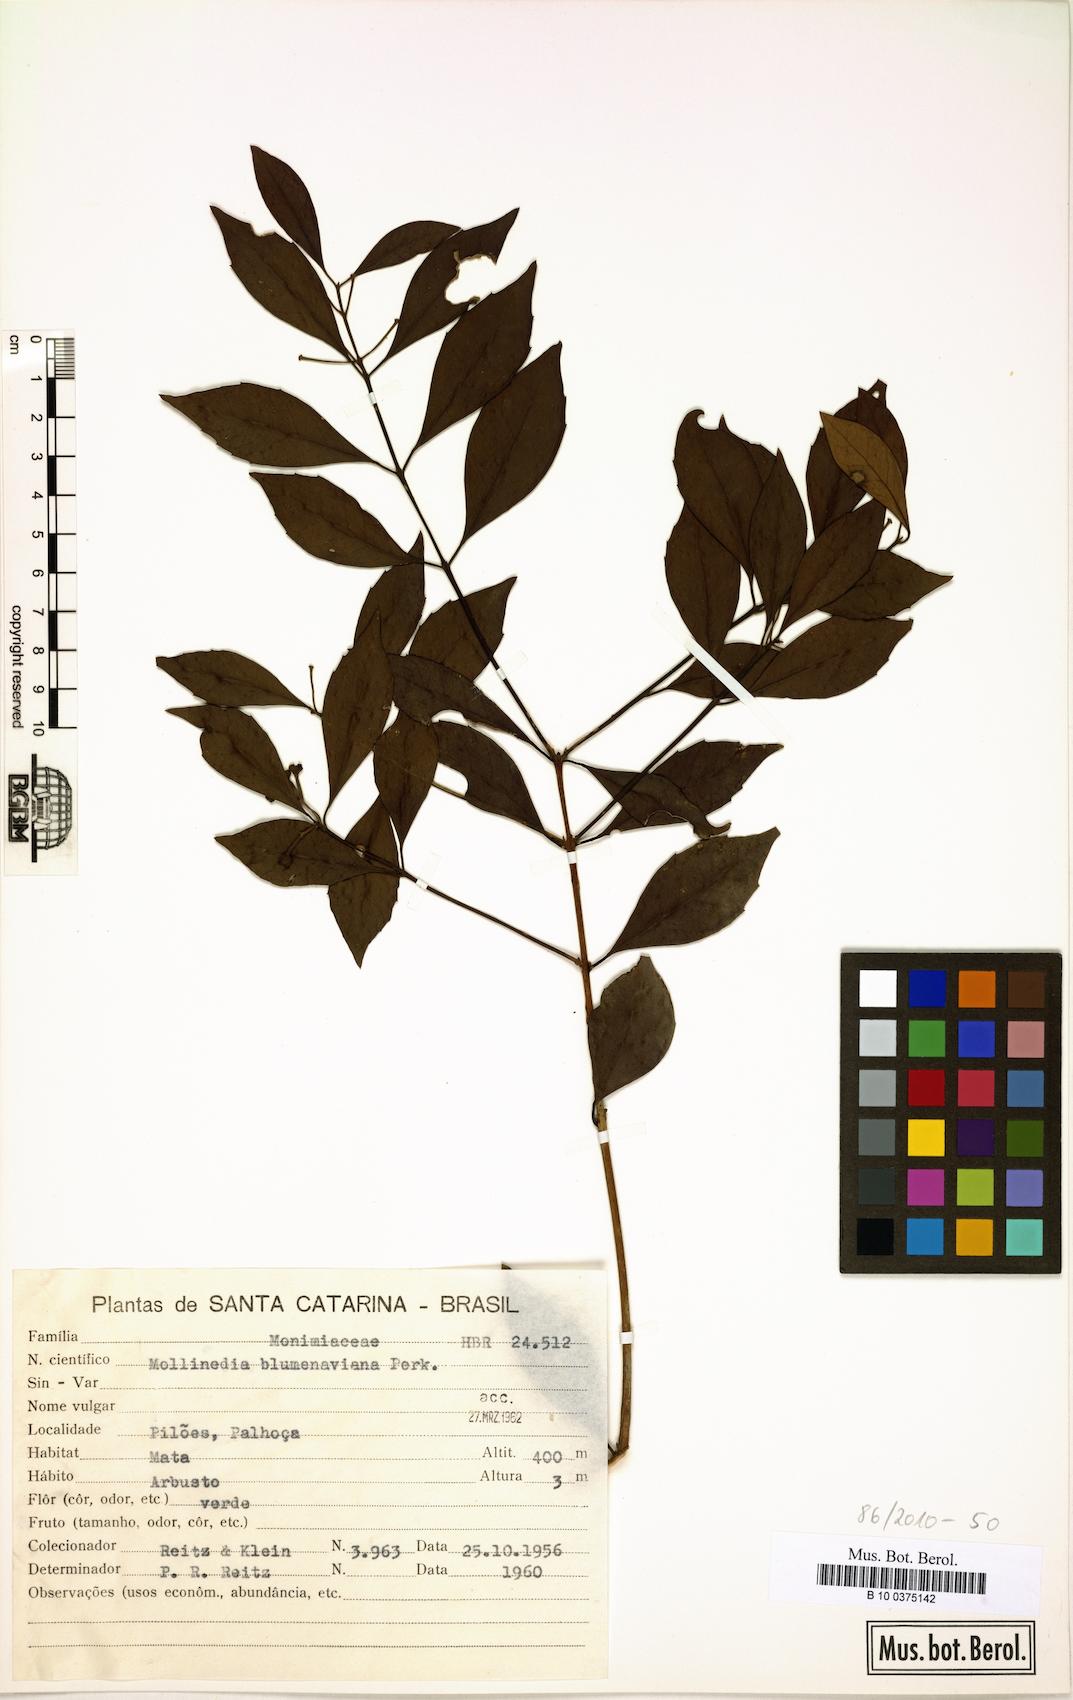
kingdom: Plantae
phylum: Tracheophyta
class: Magnoliopsida
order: Laurales
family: Monimiaceae
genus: Mollinedia
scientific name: Mollinedia clavigera
